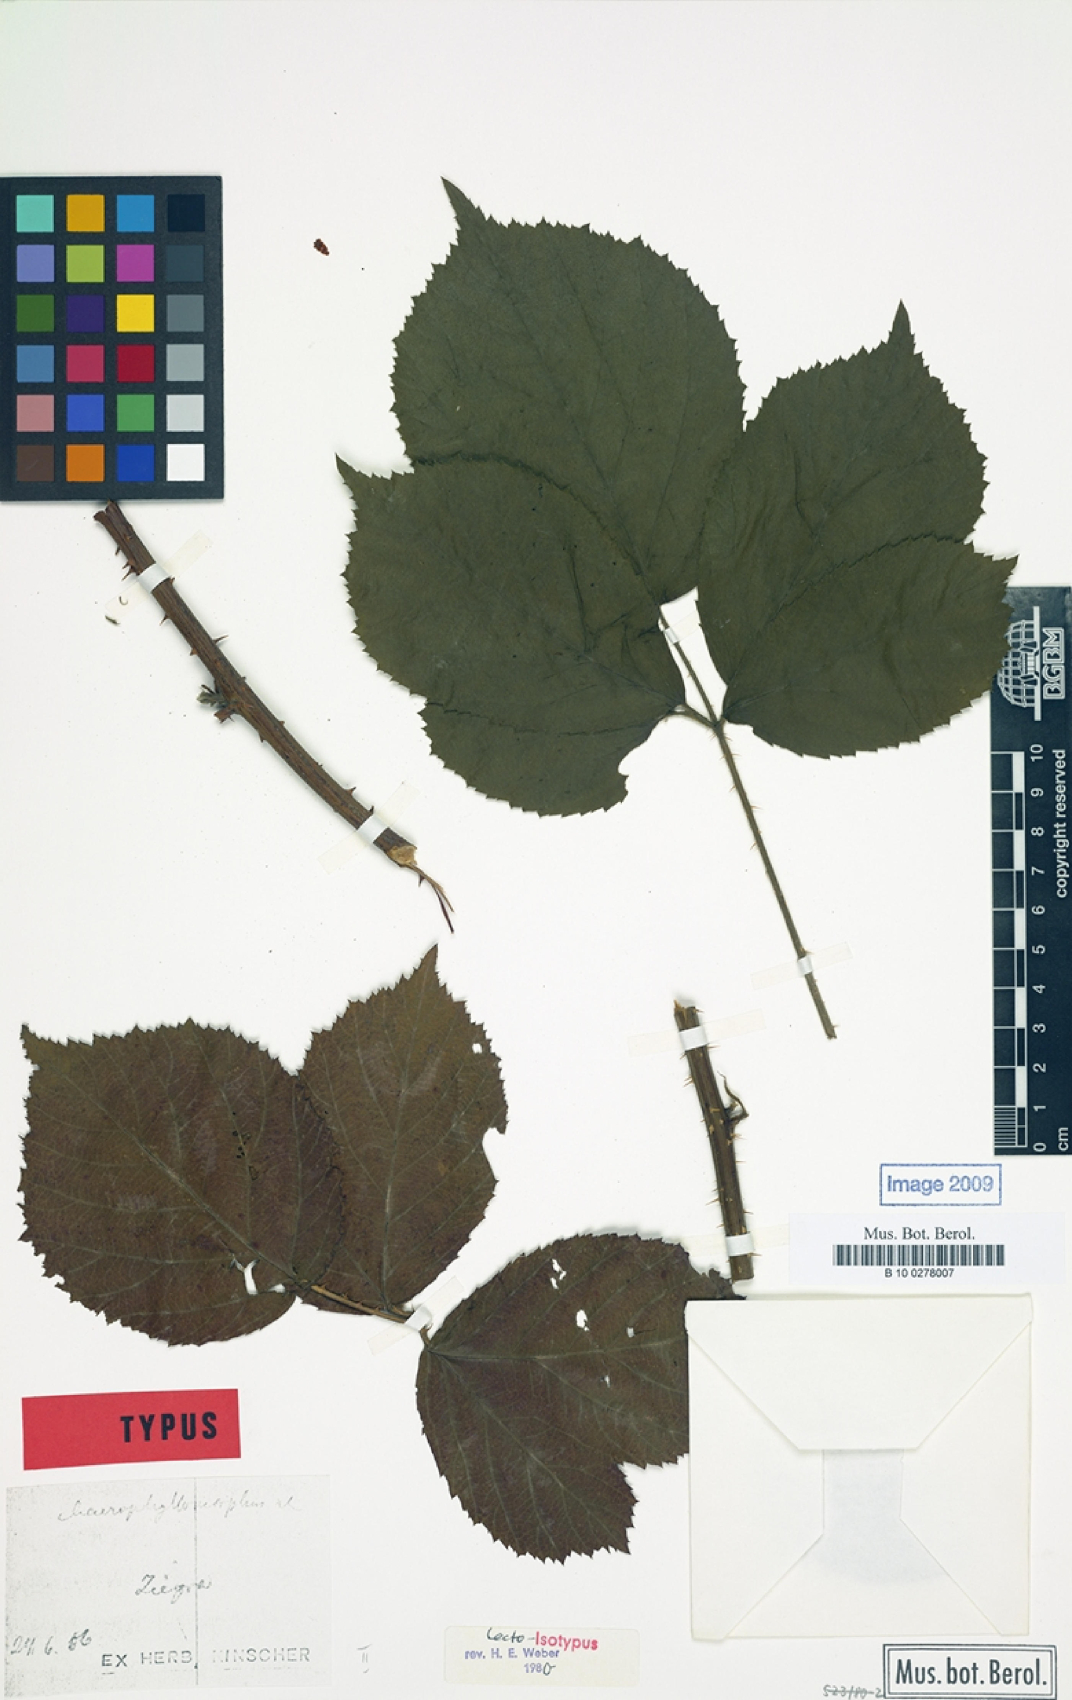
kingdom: Plantae
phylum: Tracheophyta
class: Magnoliopsida
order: Rosales
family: Rosaceae
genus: Rubus
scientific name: Rubus chaerophyllomorphus
